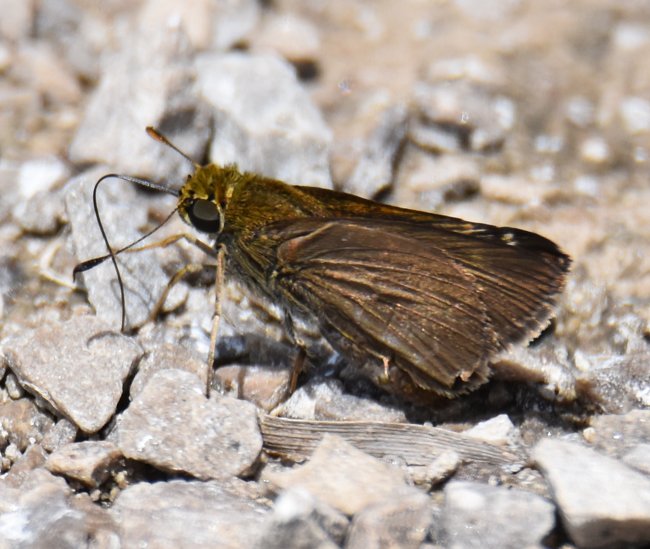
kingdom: Animalia
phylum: Arthropoda
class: Insecta
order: Lepidoptera
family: Hesperiidae
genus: Euphyes
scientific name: Euphyes vestris
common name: Dun Skipper
